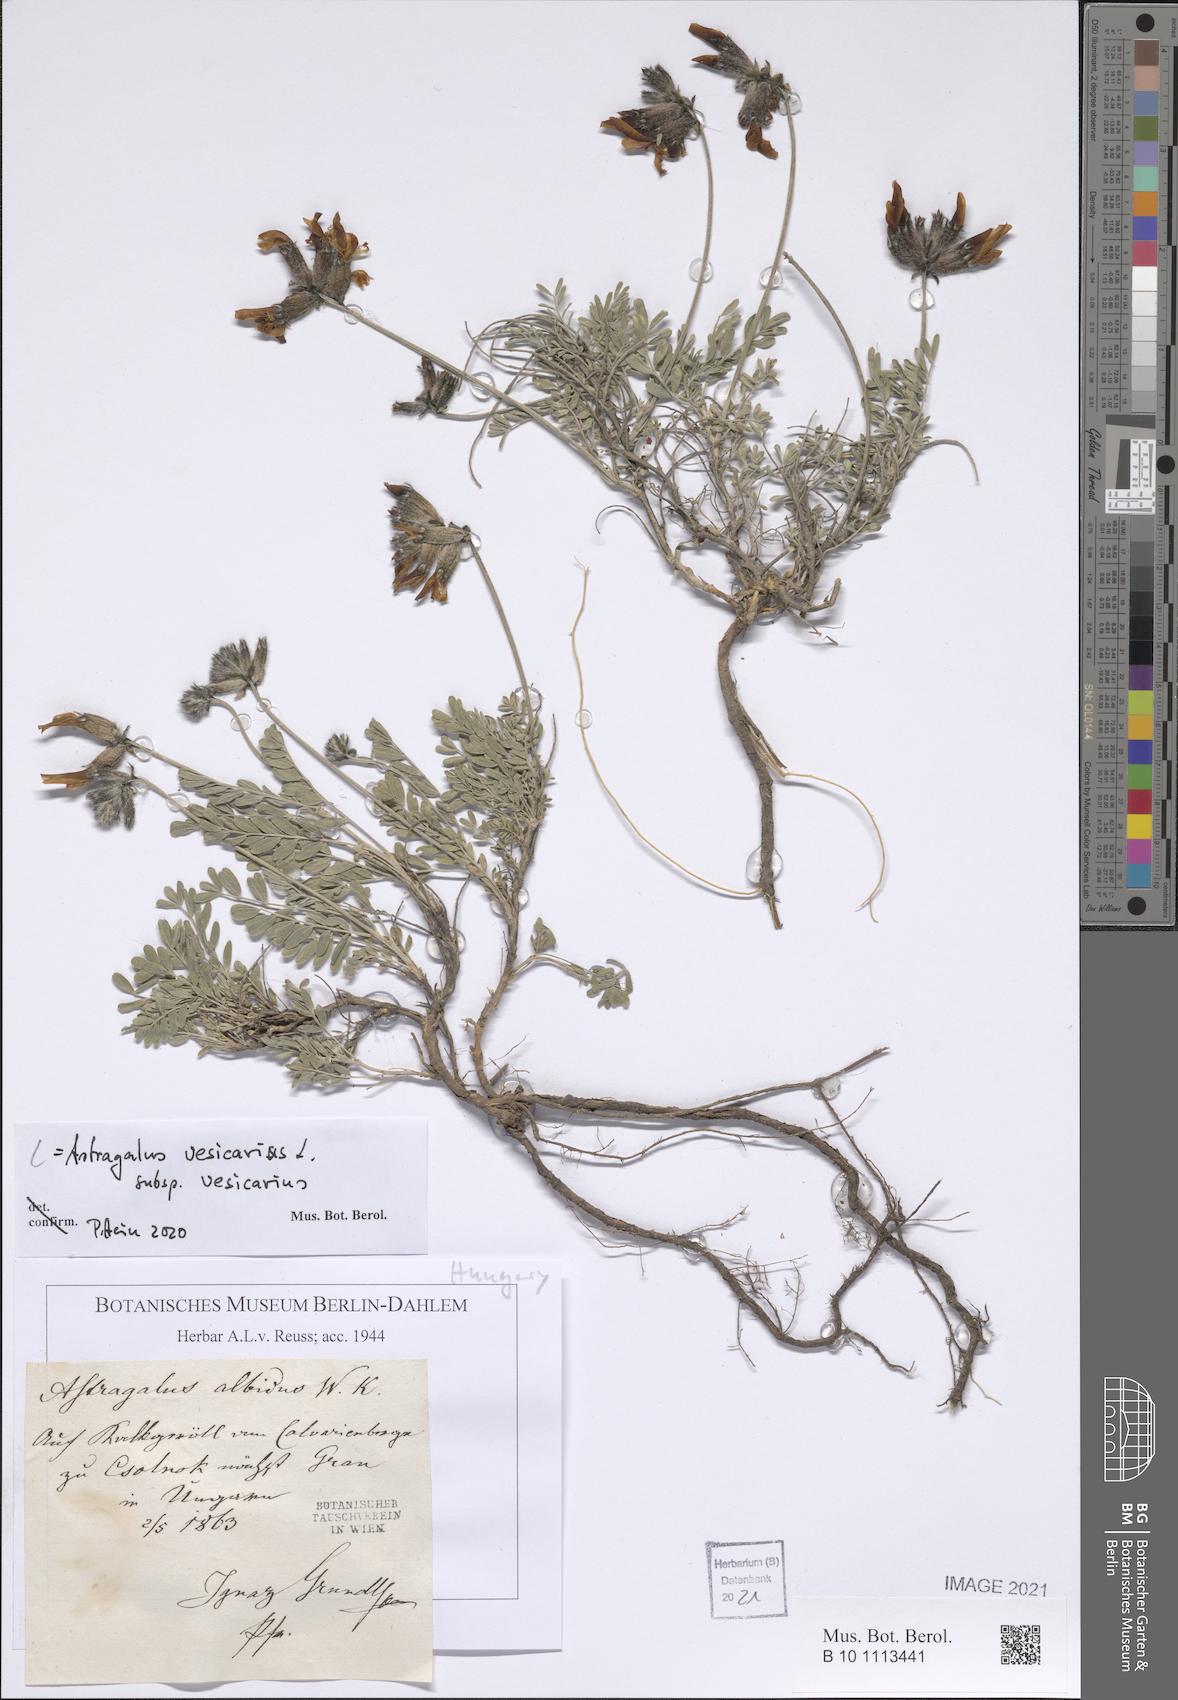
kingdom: Plantae
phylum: Tracheophyta
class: Magnoliopsida
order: Fabales
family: Fabaceae
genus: Astragalus
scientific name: Astragalus vesicarius
